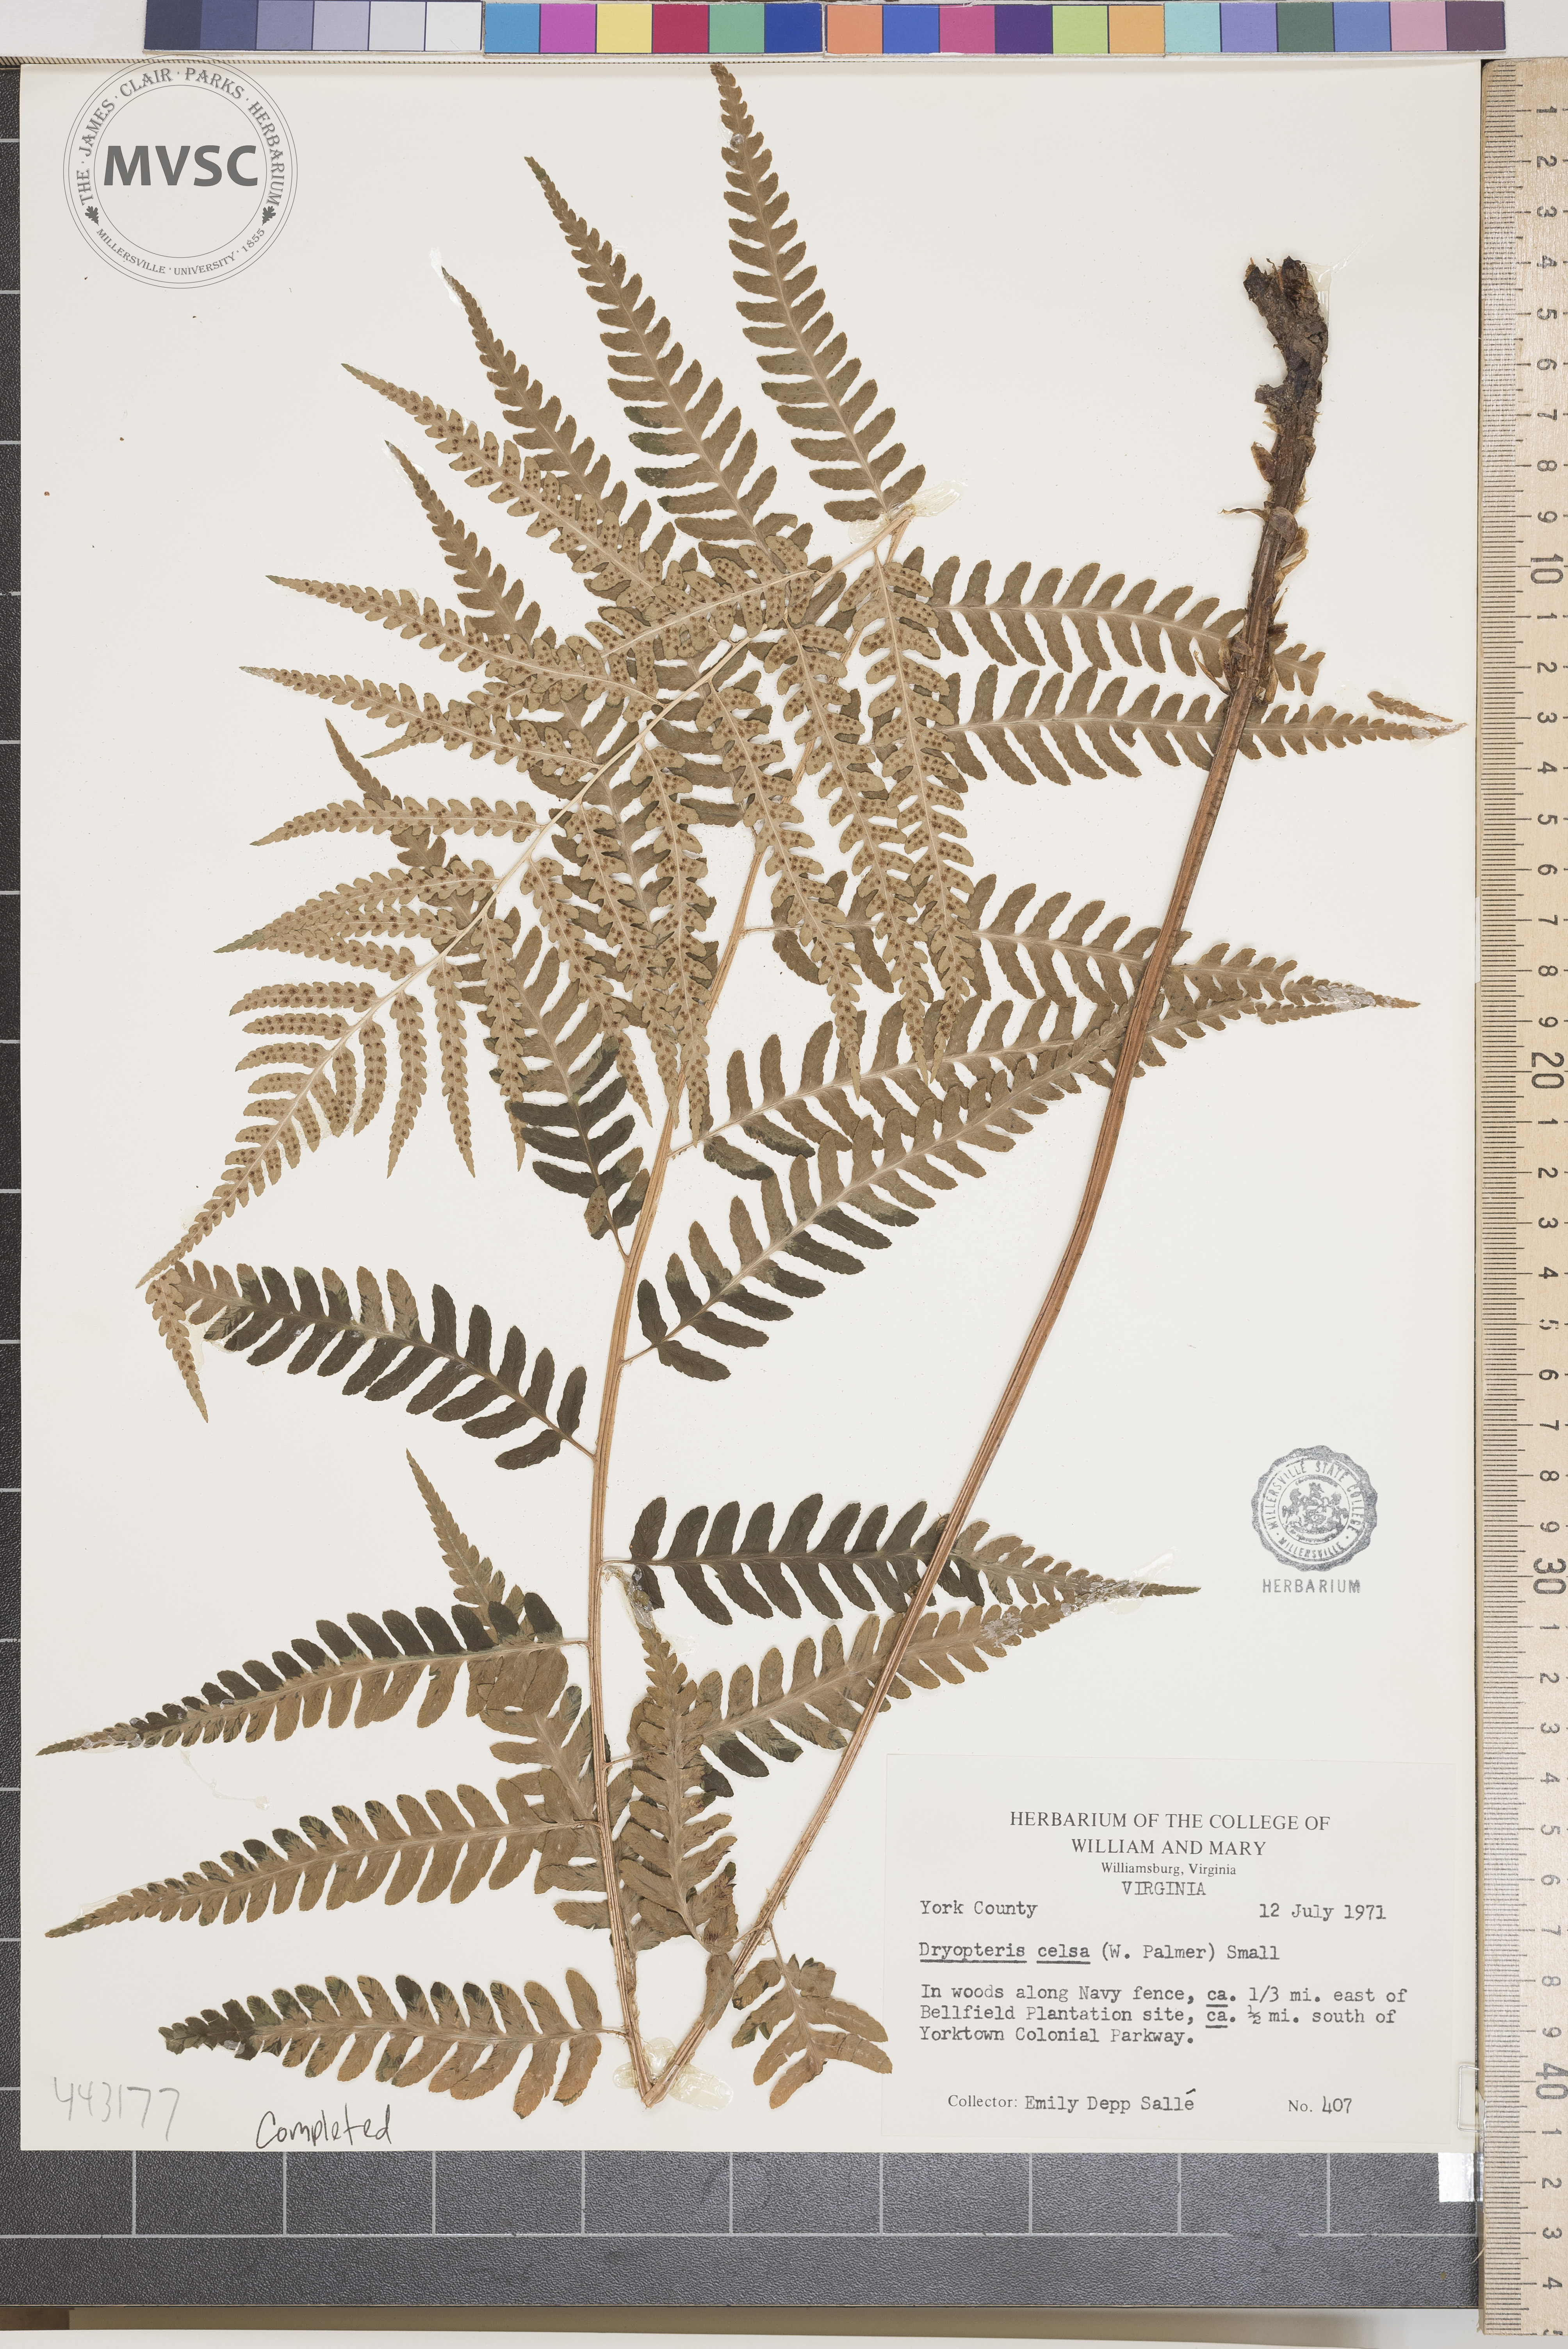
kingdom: Plantae
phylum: Tracheophyta
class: Polypodiopsida
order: Polypodiales
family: Dryopteridaceae
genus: Dryopteris
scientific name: Dryopteris celsa
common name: Log fern
